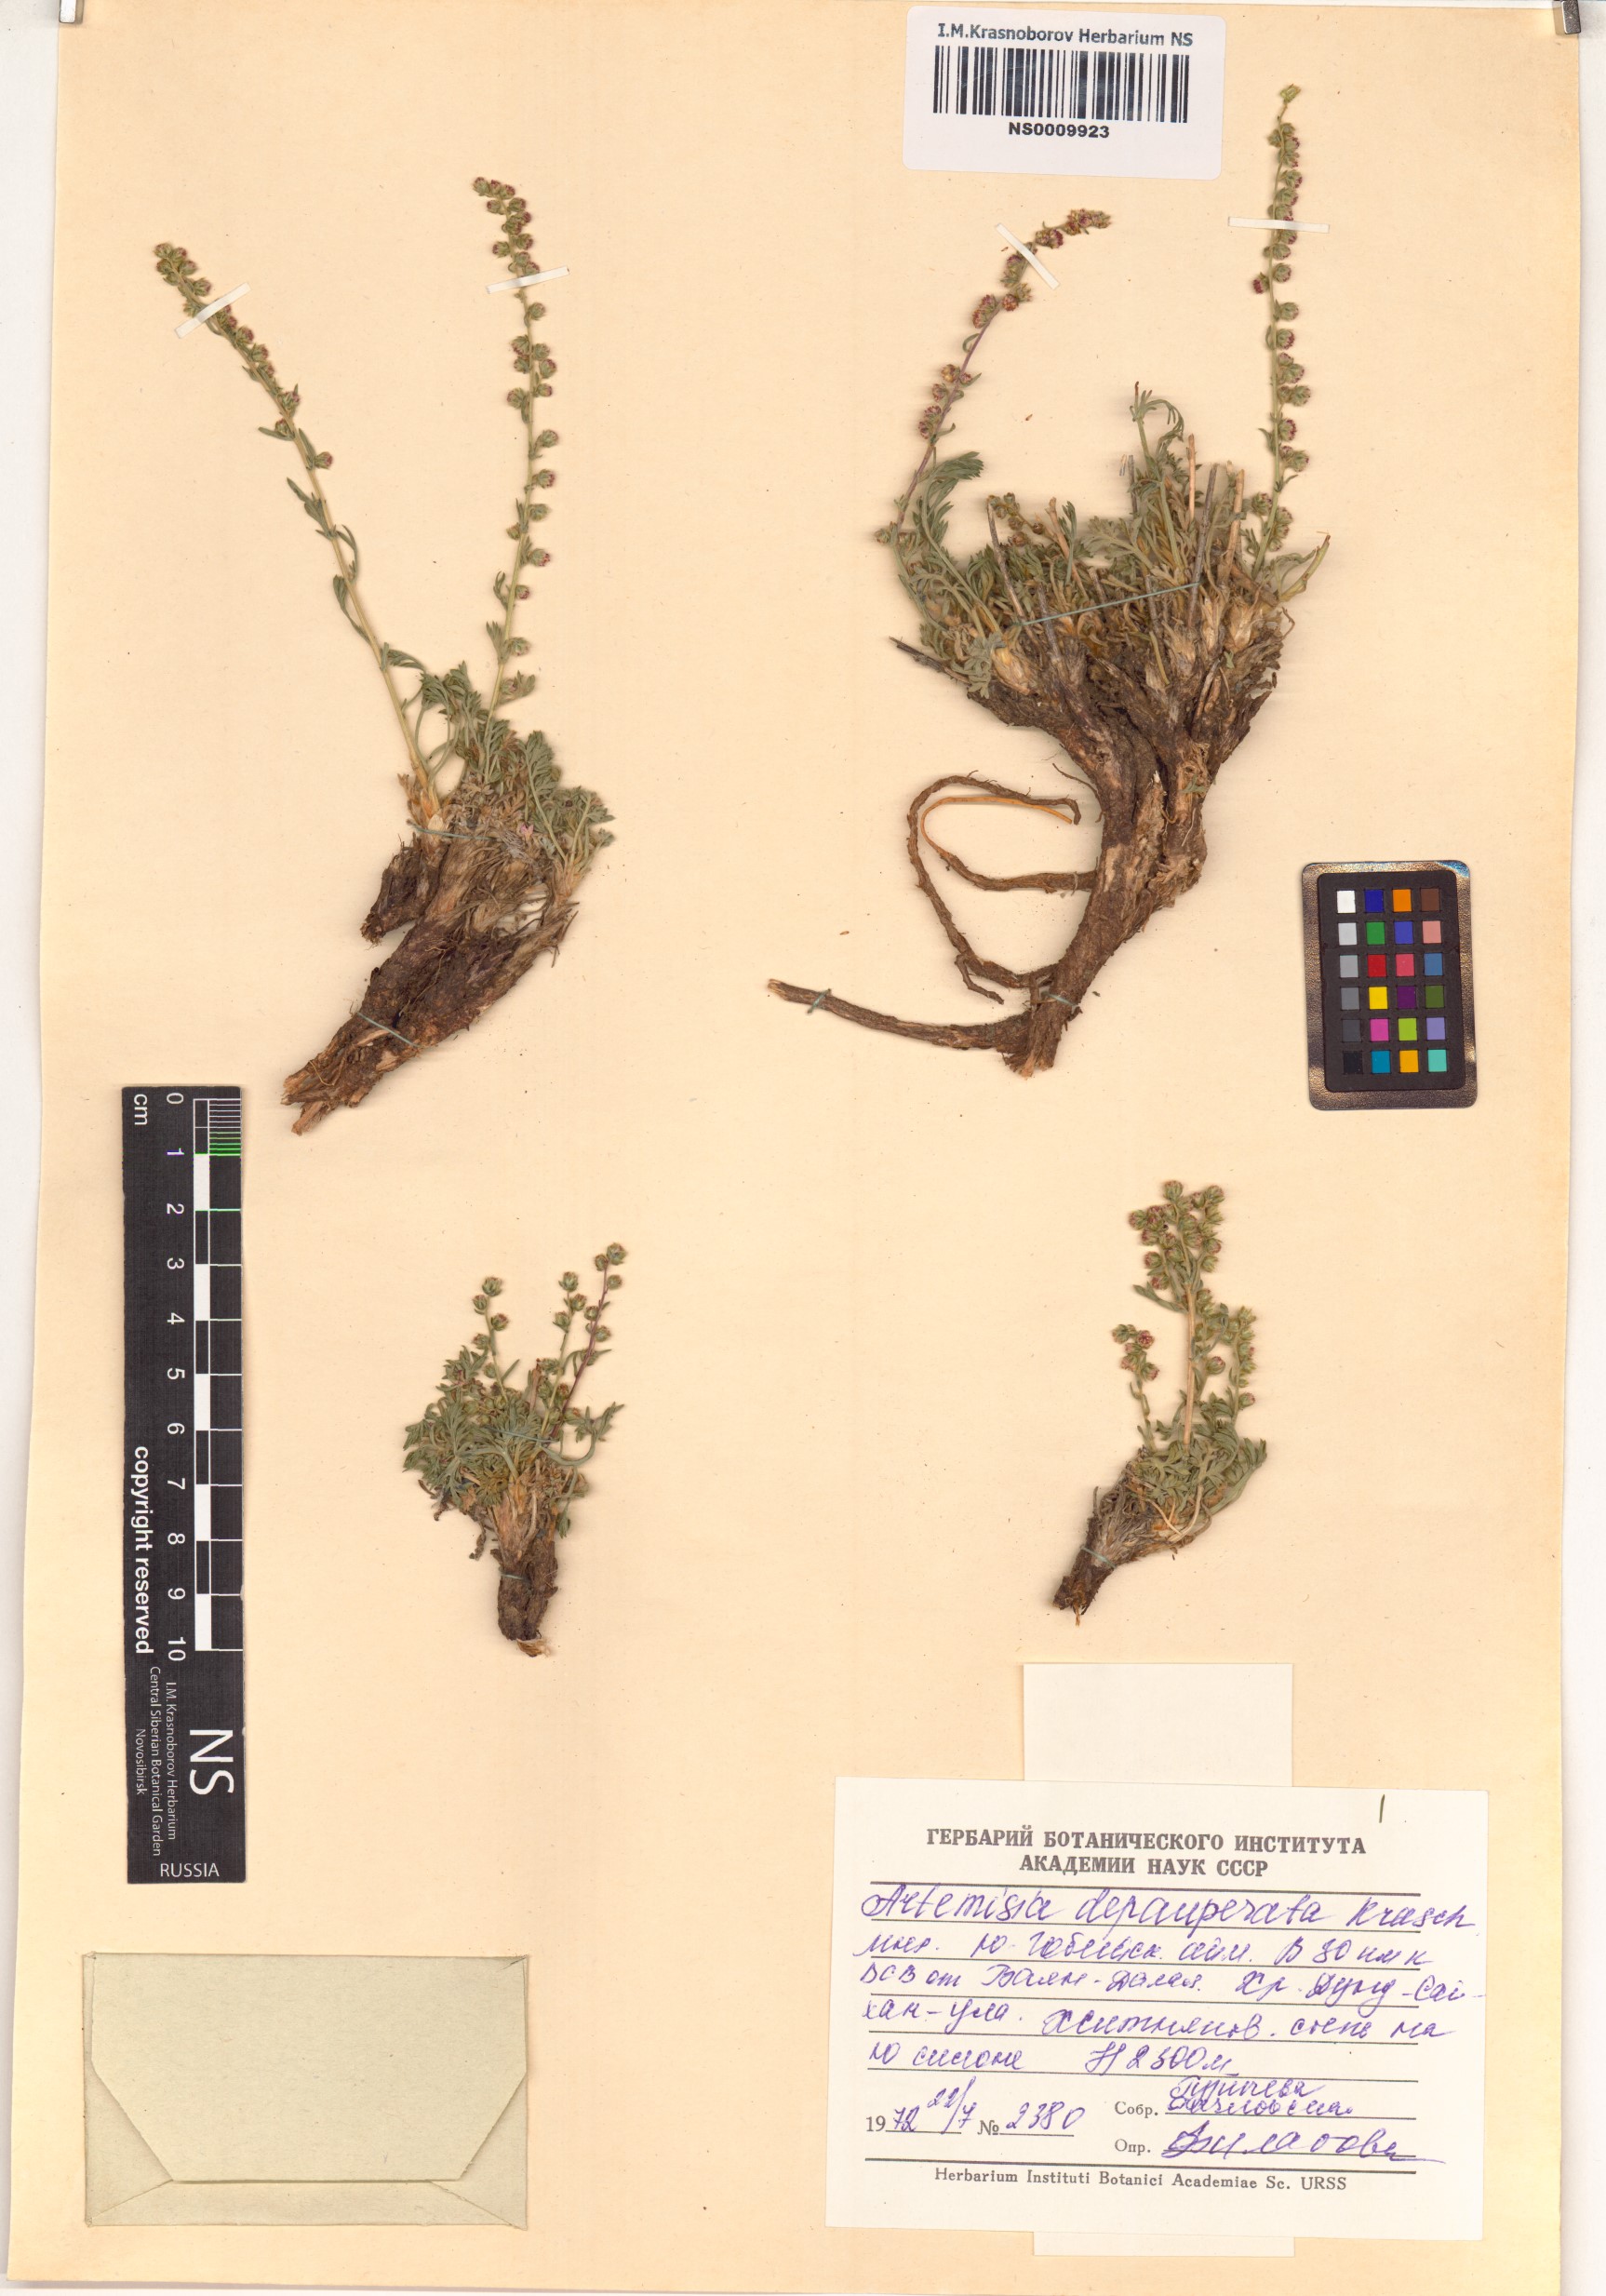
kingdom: Plantae
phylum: Tracheophyta
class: Magnoliopsida
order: Asterales
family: Asteraceae
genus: Artemisia
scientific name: Artemisia pycnorrhiza
